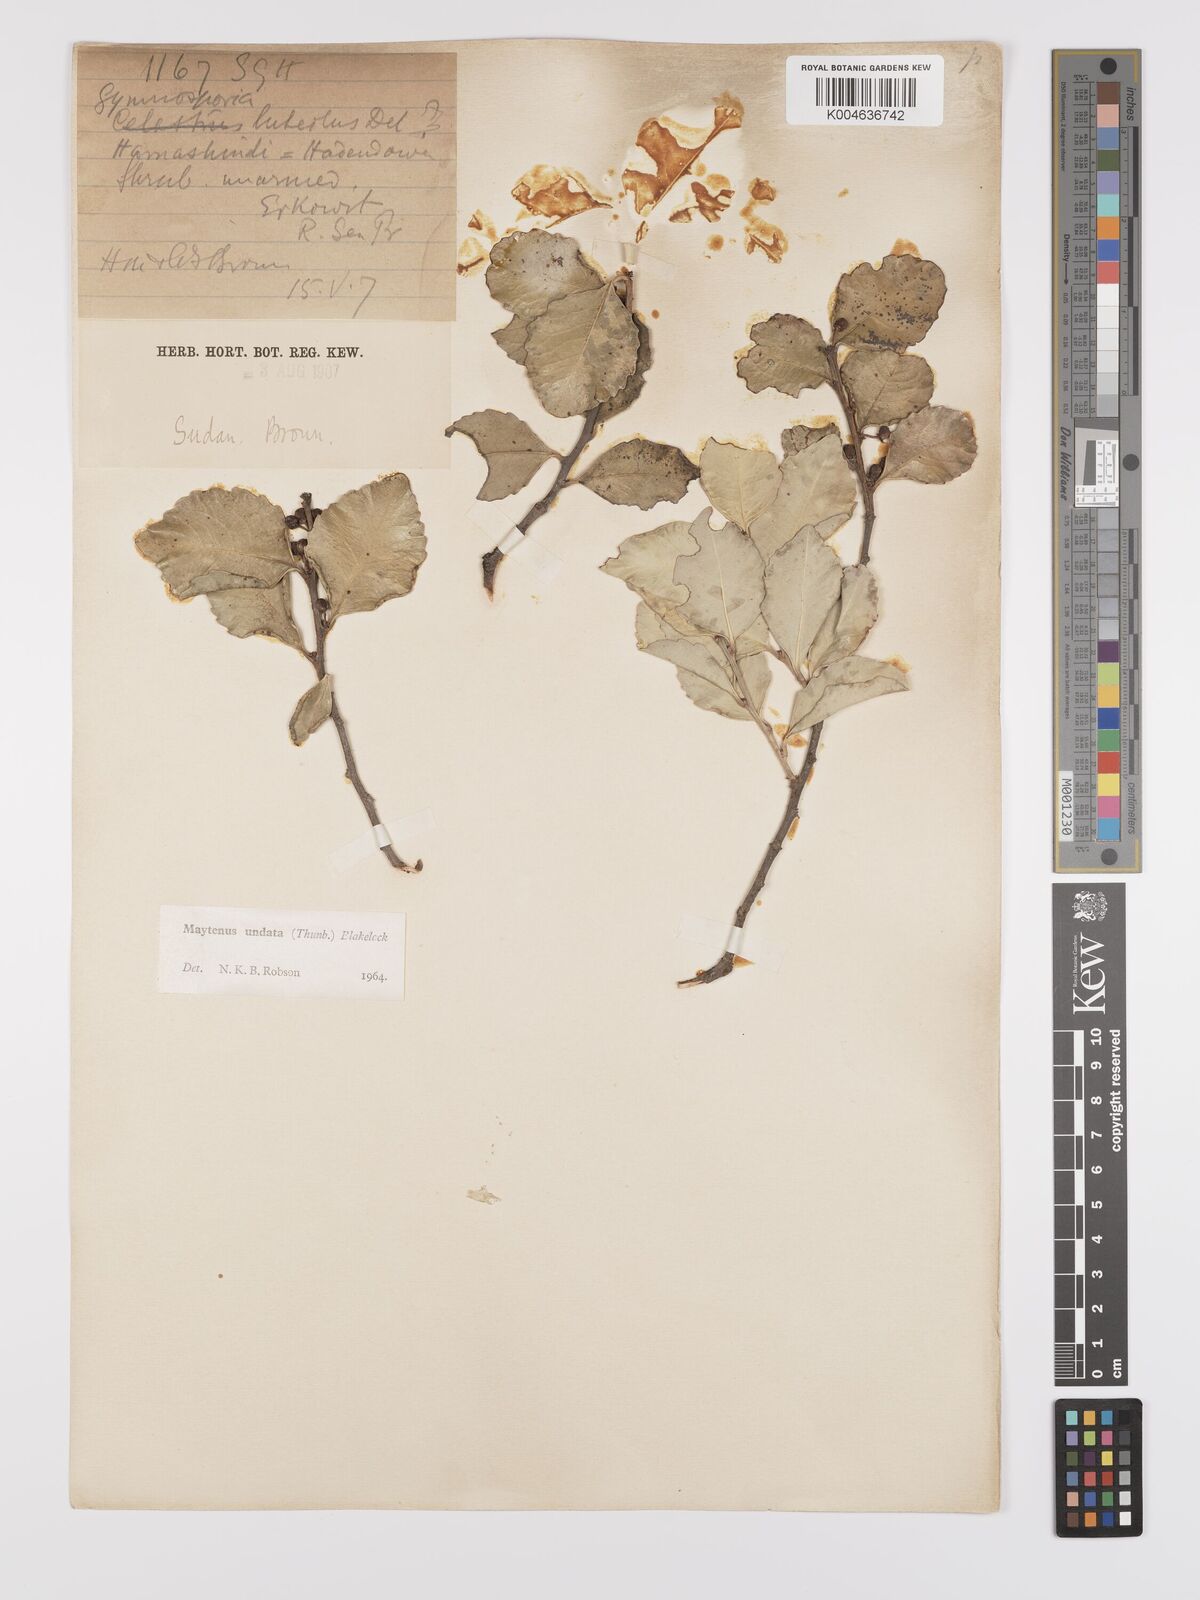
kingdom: Plantae
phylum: Tracheophyta
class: Magnoliopsida
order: Celastrales
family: Celastraceae
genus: Gymnosporia
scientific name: Gymnosporia undata
